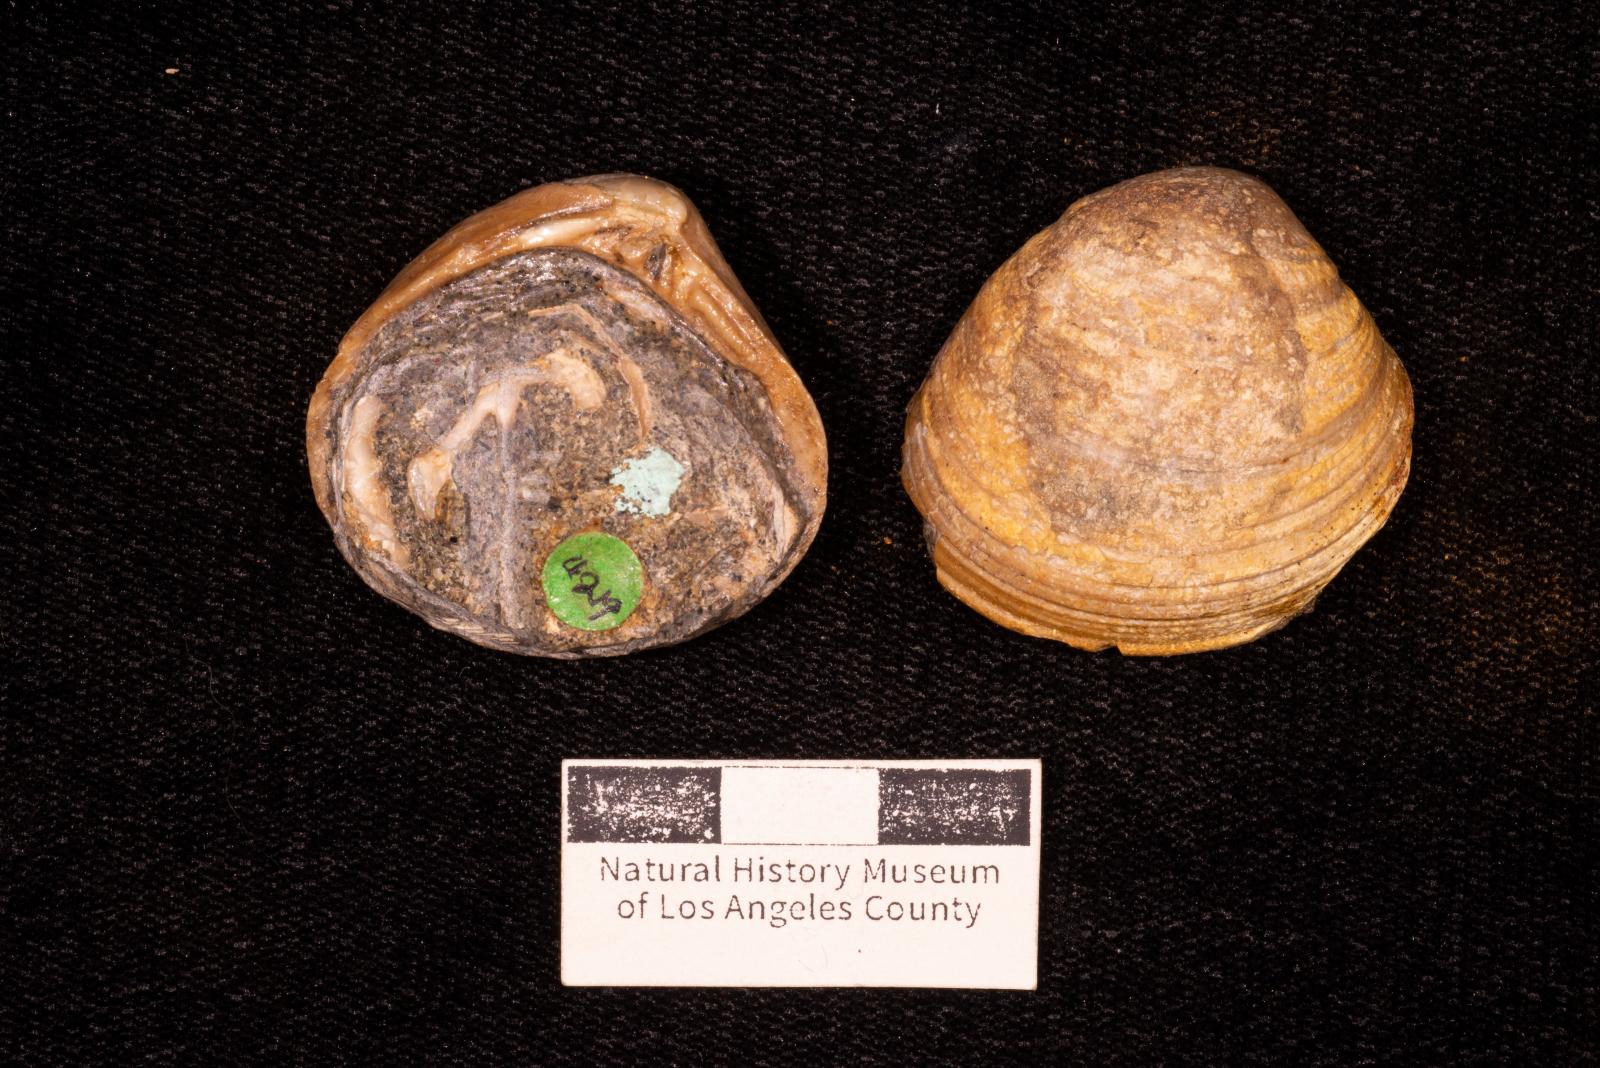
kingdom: Animalia
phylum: Mollusca
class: Bivalvia
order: Venerida
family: Veneridae
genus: Calva
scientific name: Calva Trigonocallista taffi
